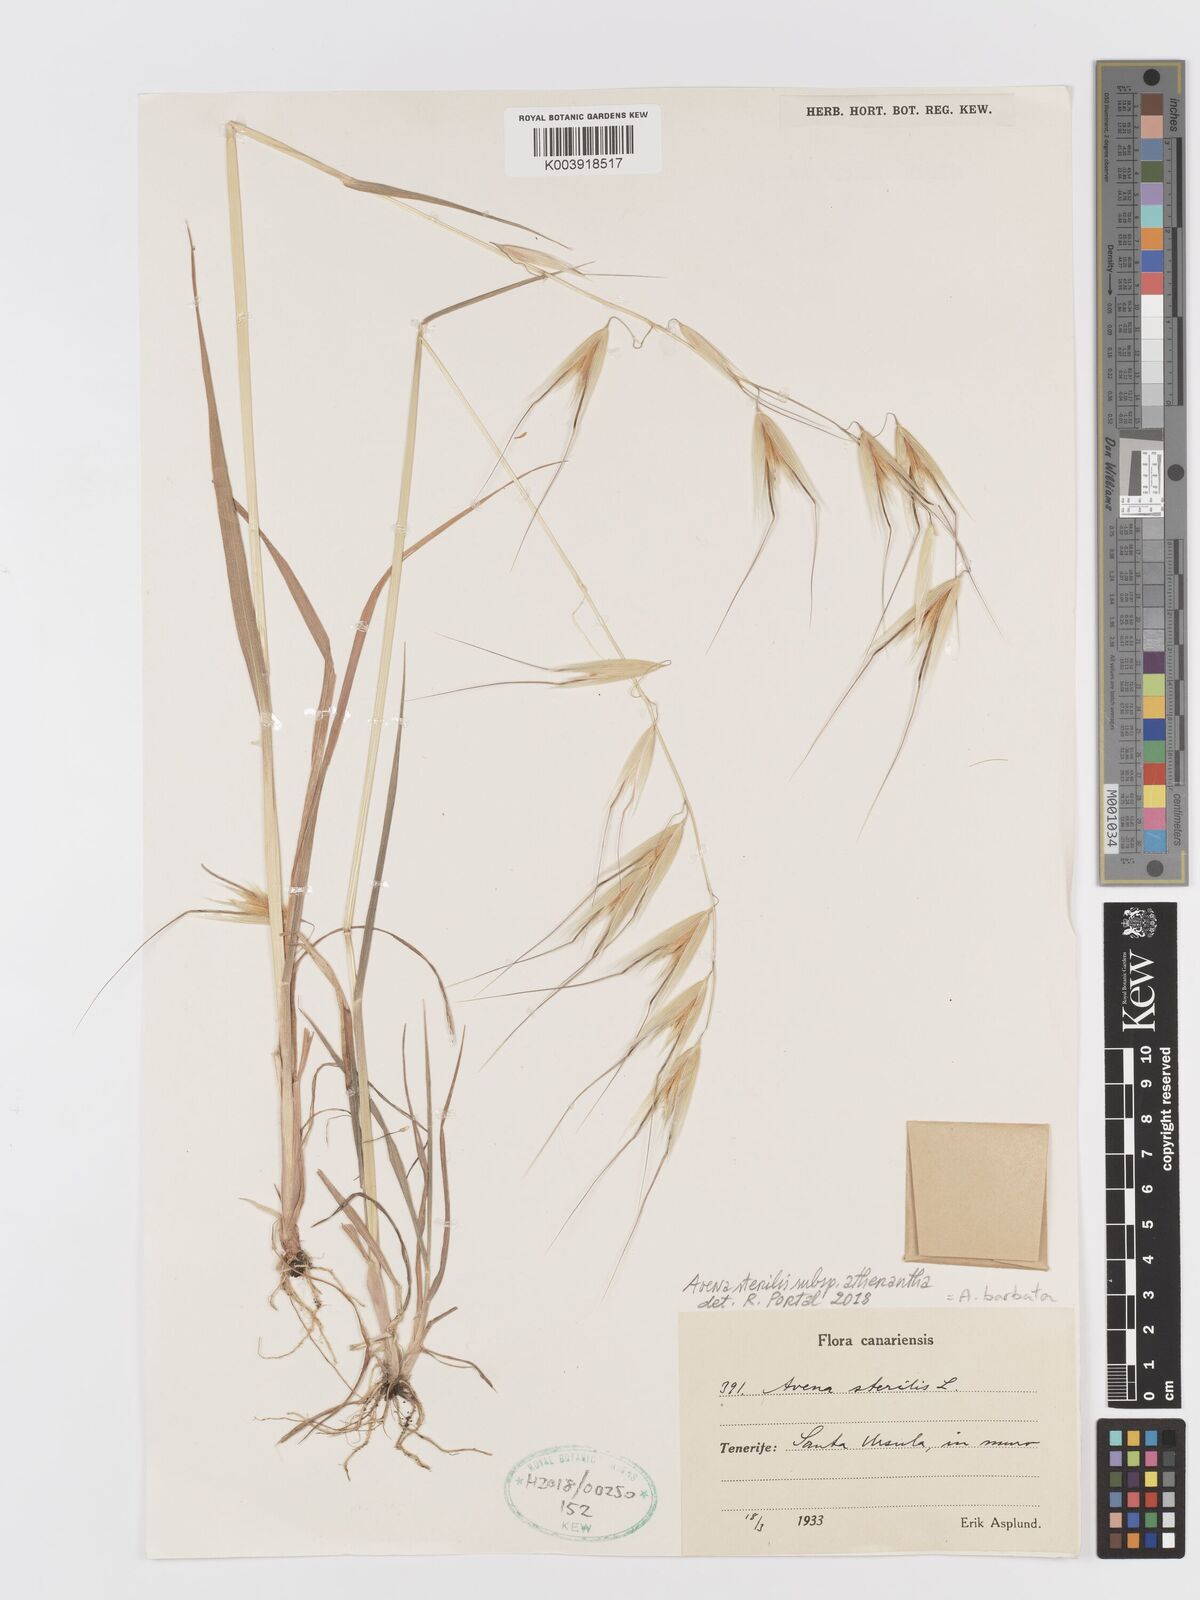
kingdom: Plantae
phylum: Tracheophyta
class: Liliopsida
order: Poales
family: Poaceae
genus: Avena
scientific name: Avena
